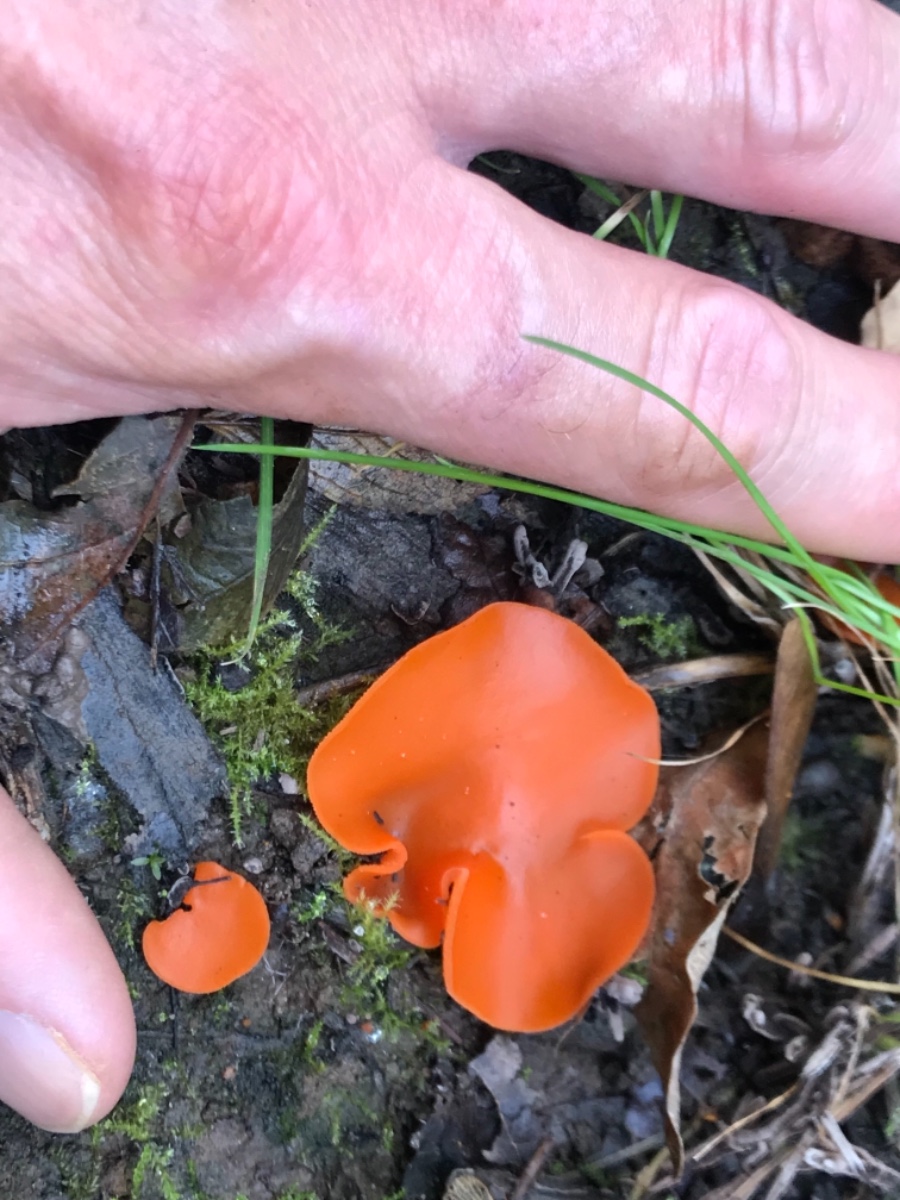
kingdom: Fungi
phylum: Ascomycota
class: Pezizomycetes
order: Pezizales
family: Pyronemataceae
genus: Aleuria
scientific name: Aleuria aurantia
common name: almindelig orangebæger
